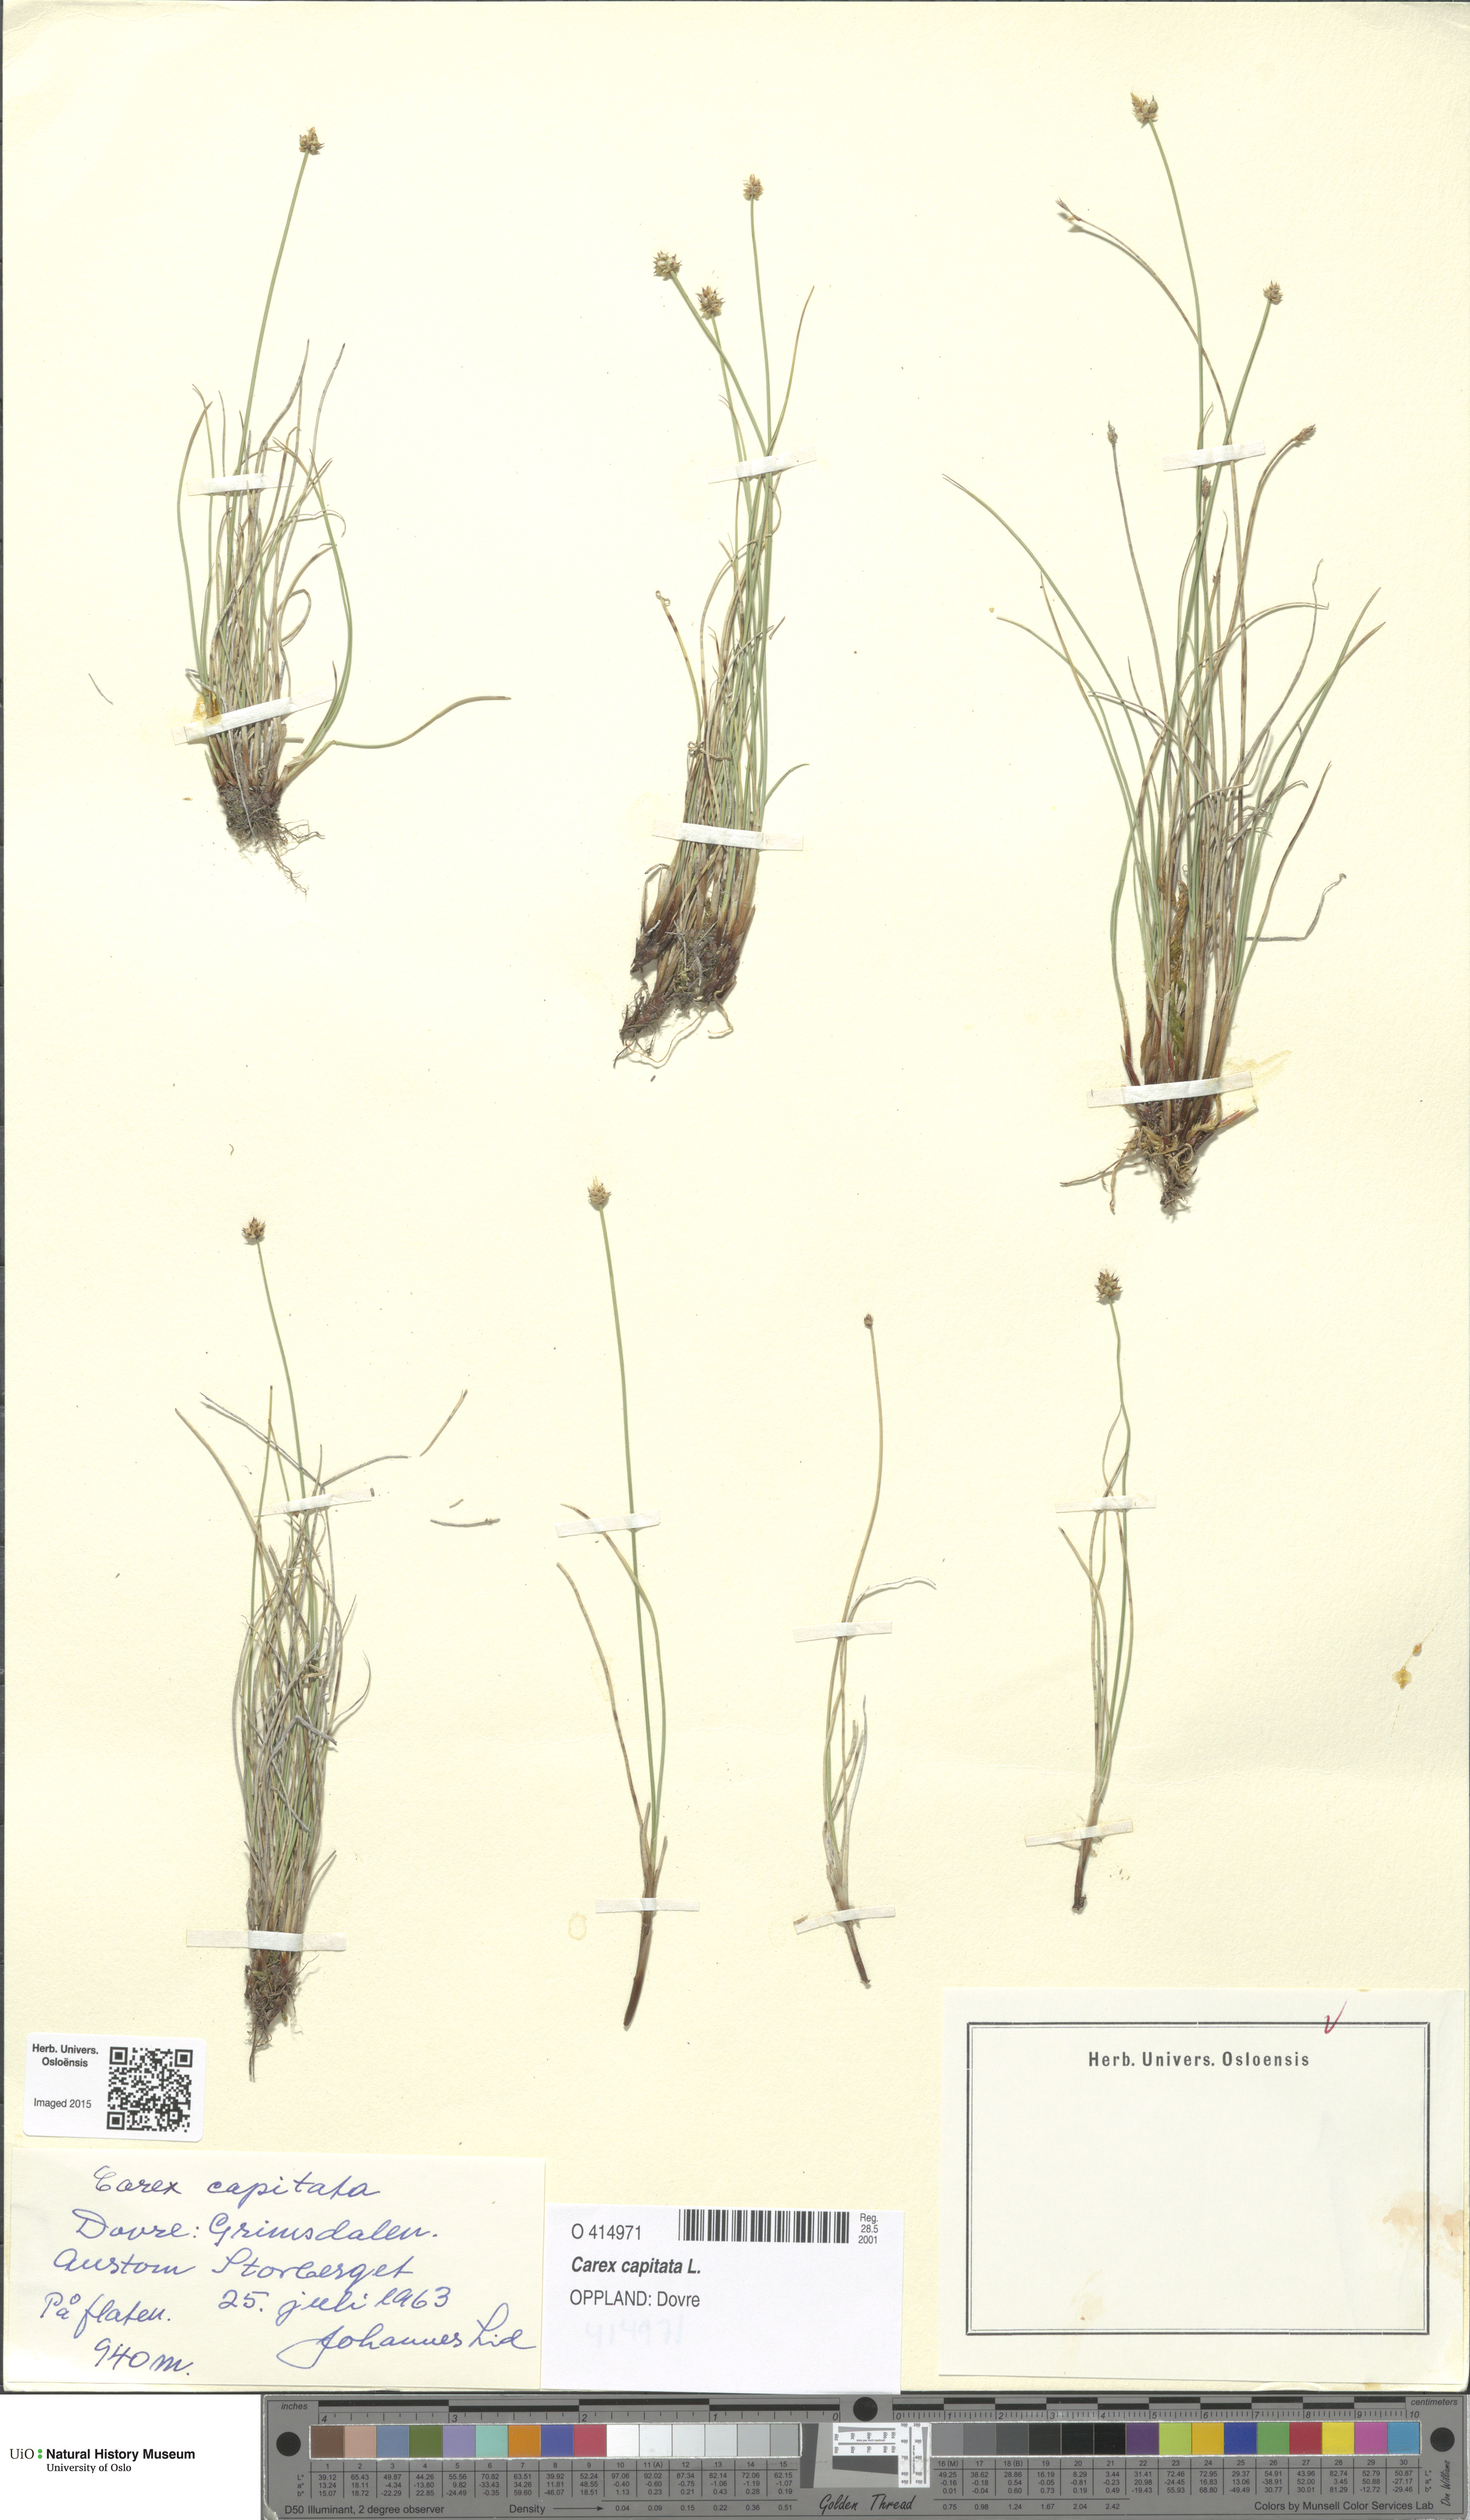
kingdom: Plantae
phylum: Tracheophyta
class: Liliopsida
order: Poales
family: Cyperaceae
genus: Carex
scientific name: Carex capitata
